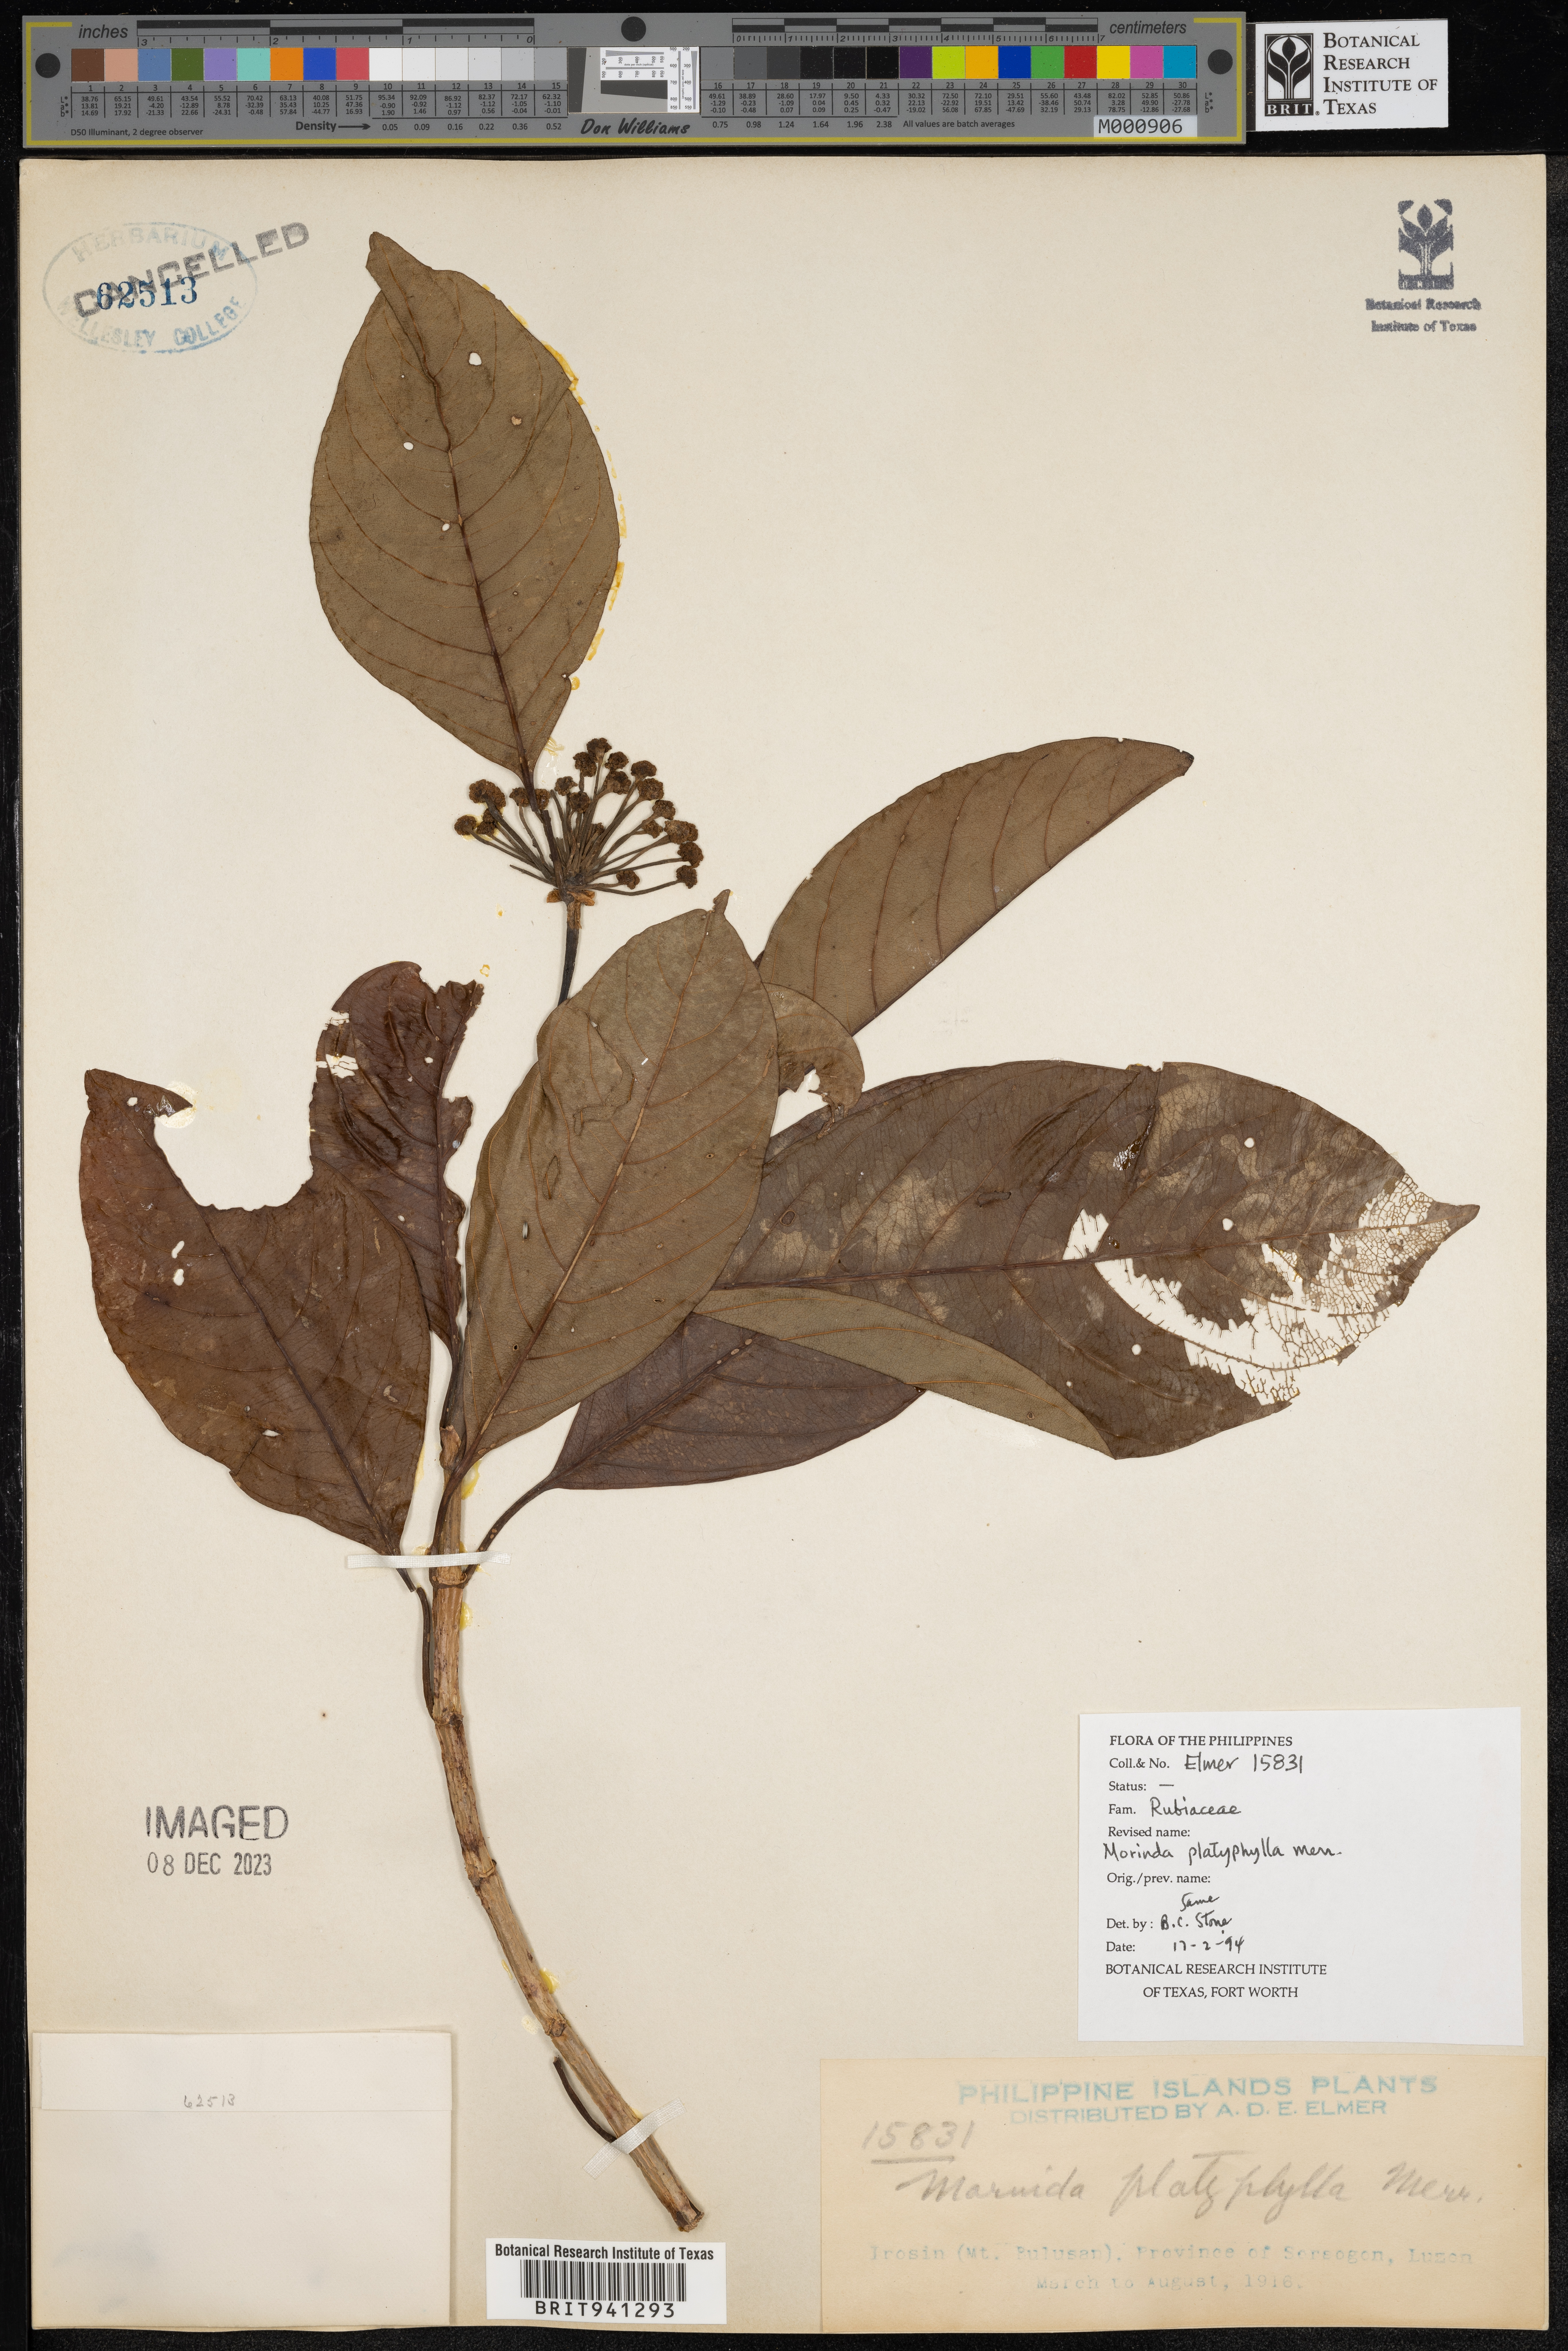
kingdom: Plantae
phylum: Tracheophyta
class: Magnoliopsida
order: Gentianales
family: Rubiaceae
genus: Morinda
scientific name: Morinda
